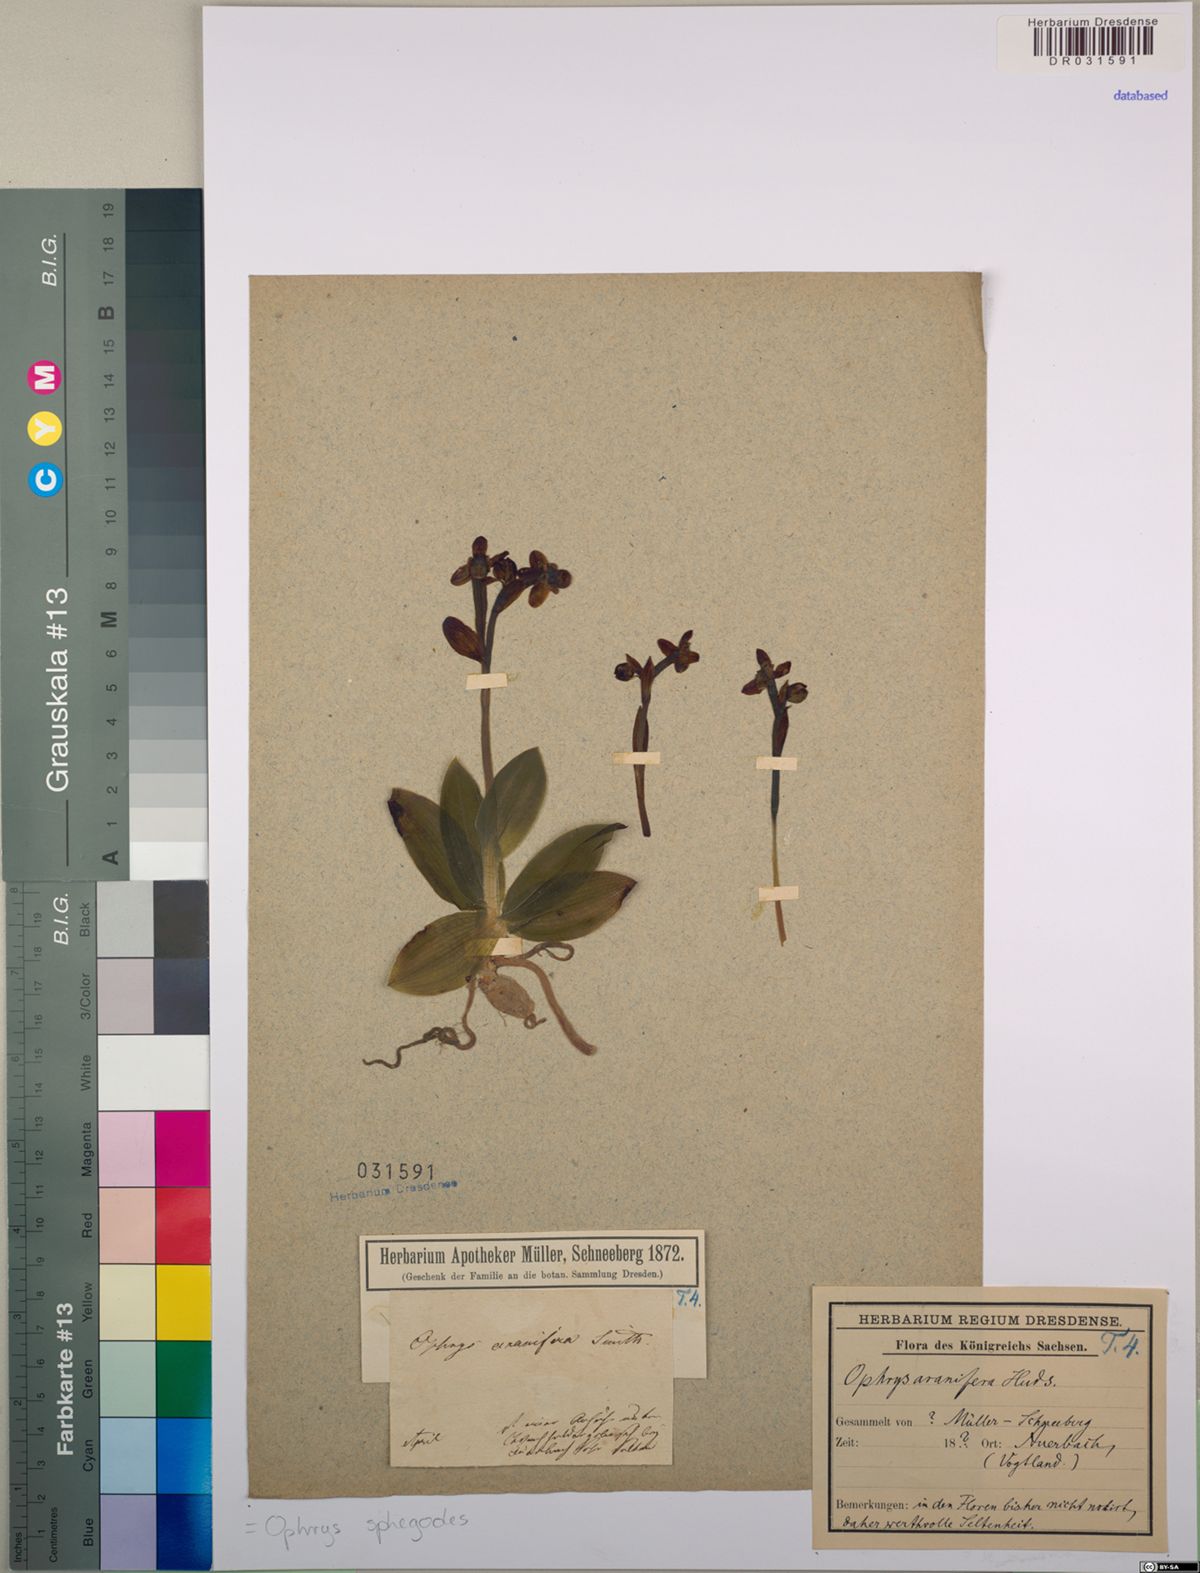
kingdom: Plantae
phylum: Tracheophyta
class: Liliopsida
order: Asparagales
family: Orchidaceae
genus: Ophrys
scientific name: Ophrys sphegodes
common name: Early spider-orchid
